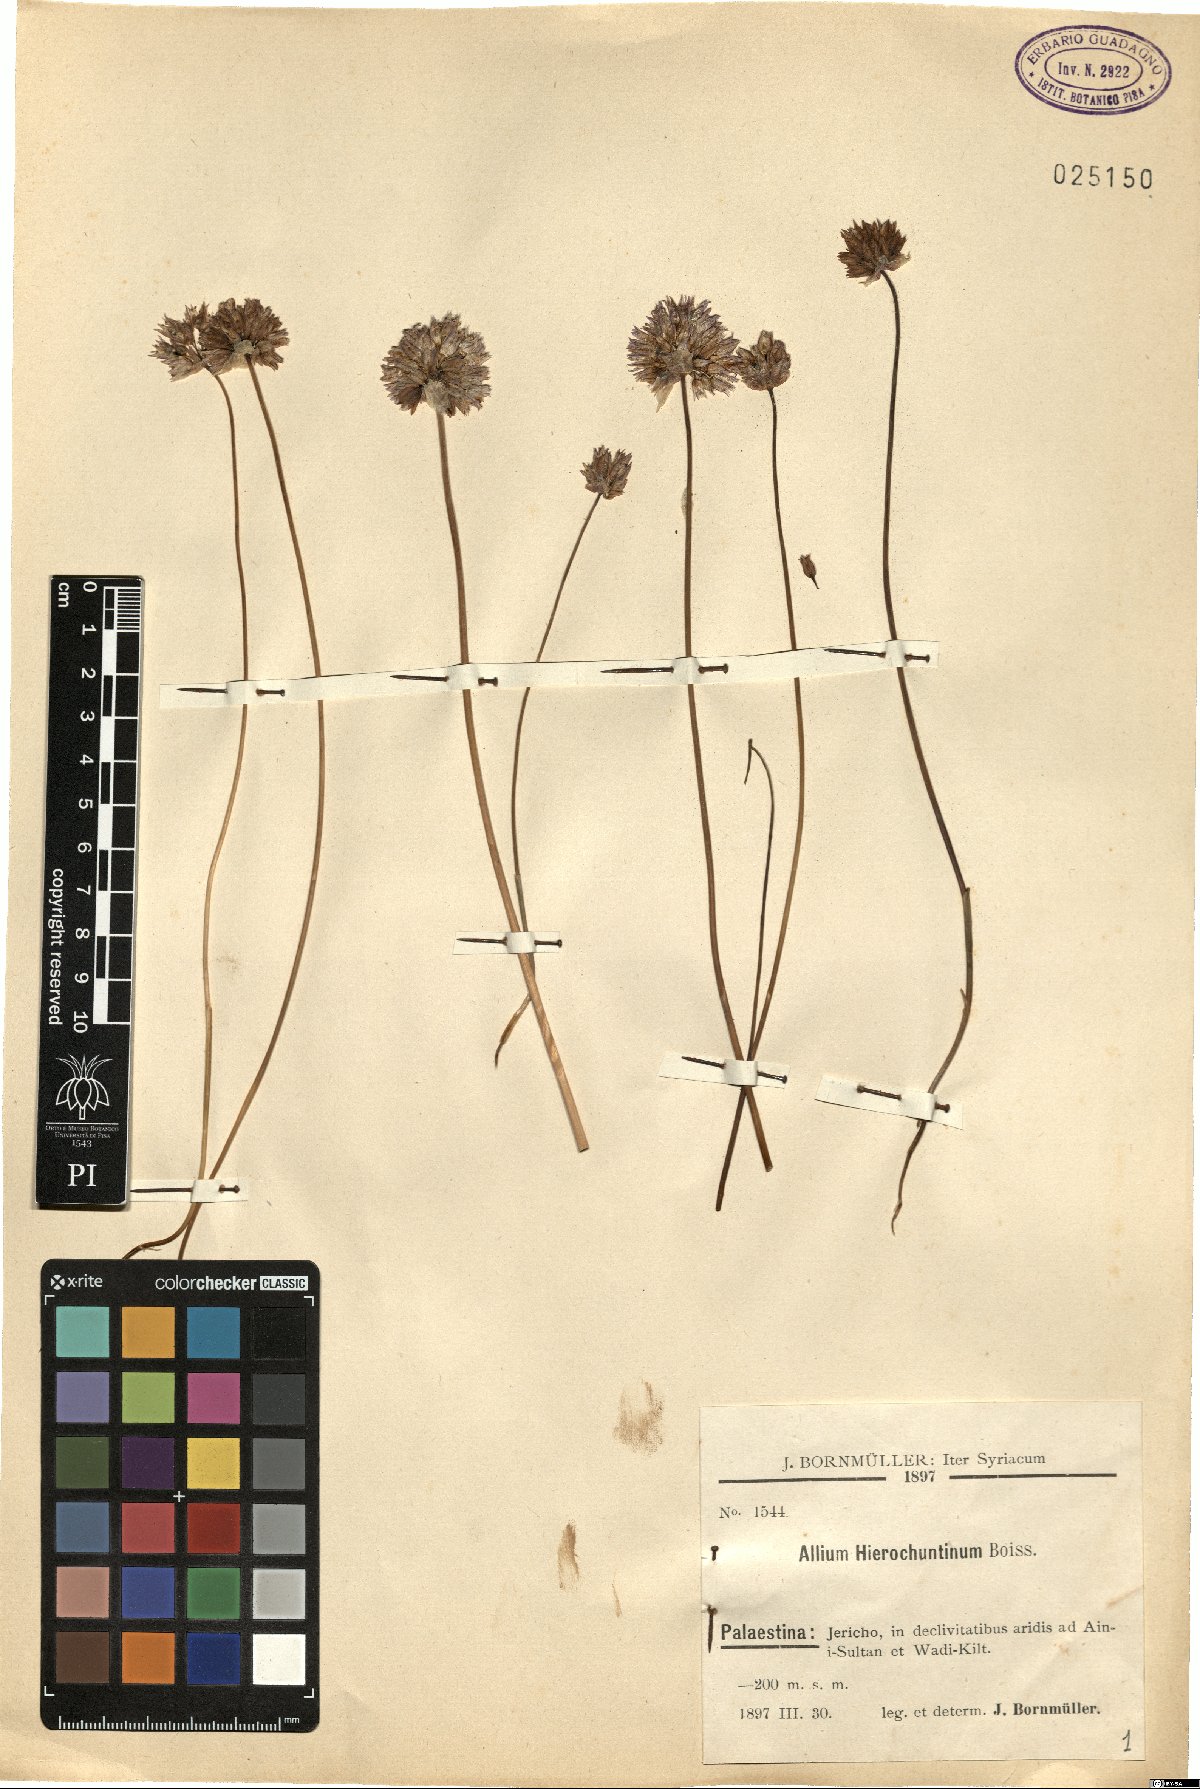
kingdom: Plantae
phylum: Tracheophyta
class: Liliopsida
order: Asparagales
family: Amaryllidaceae
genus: Allium
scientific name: Allium ascalonicum
